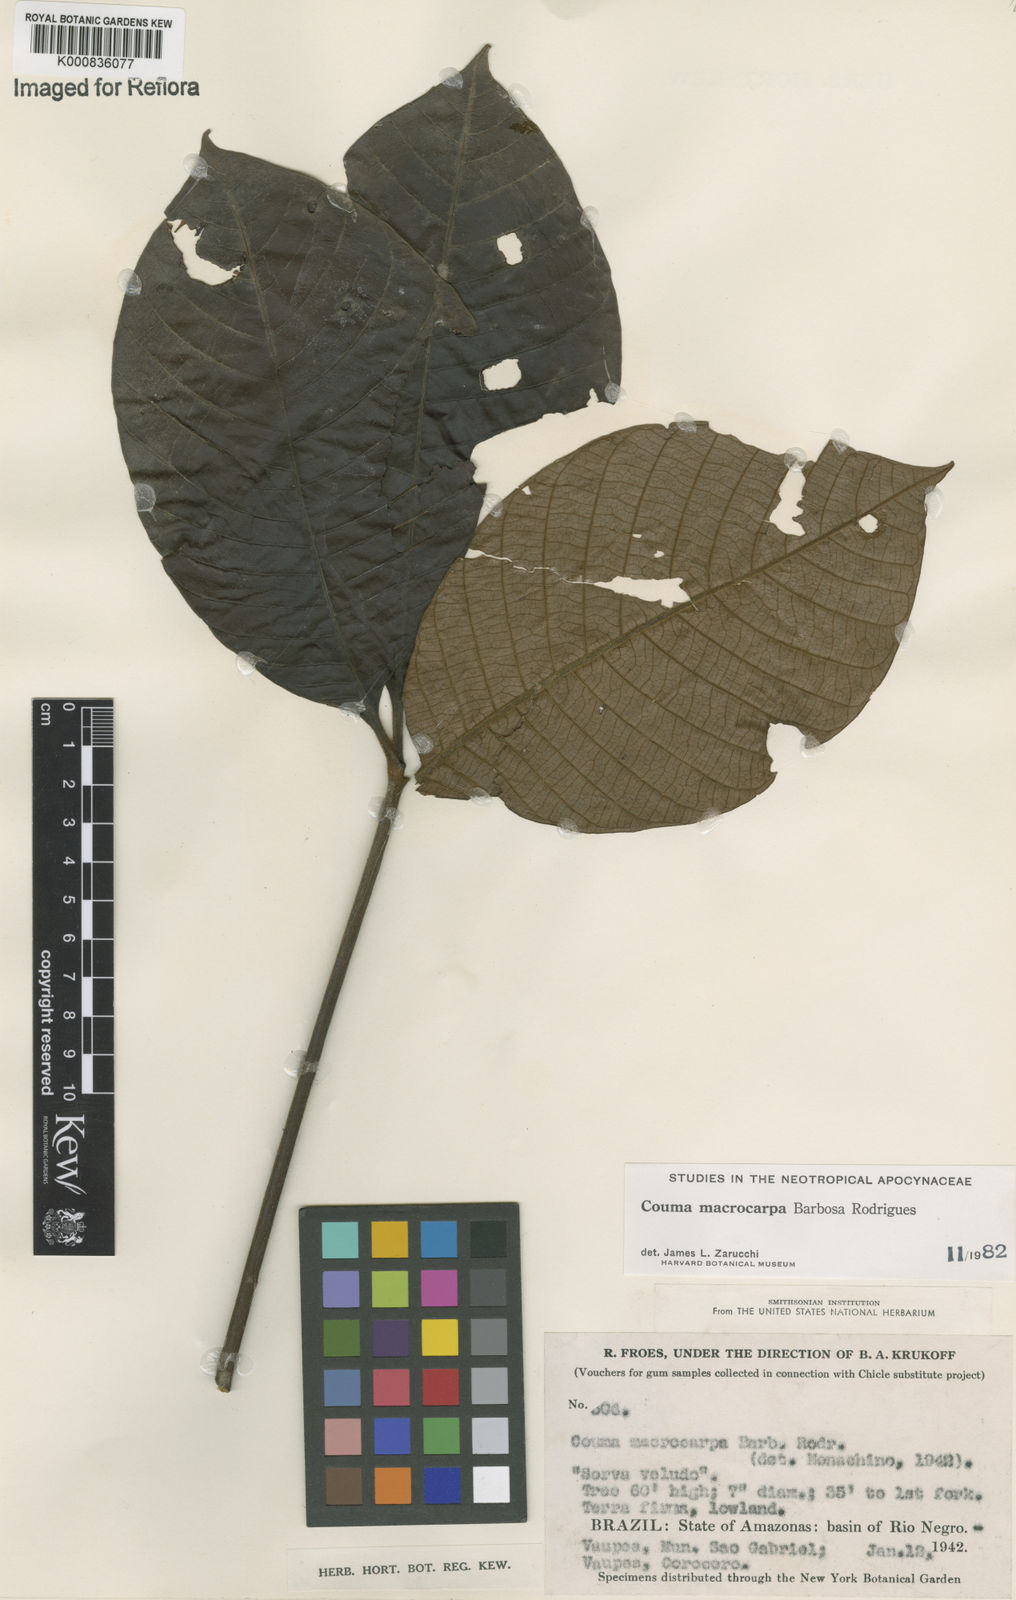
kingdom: Plantae
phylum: Tracheophyta
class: Magnoliopsida
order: Gentianales
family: Apocynaceae
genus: Couma
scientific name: Couma macrocarpa
